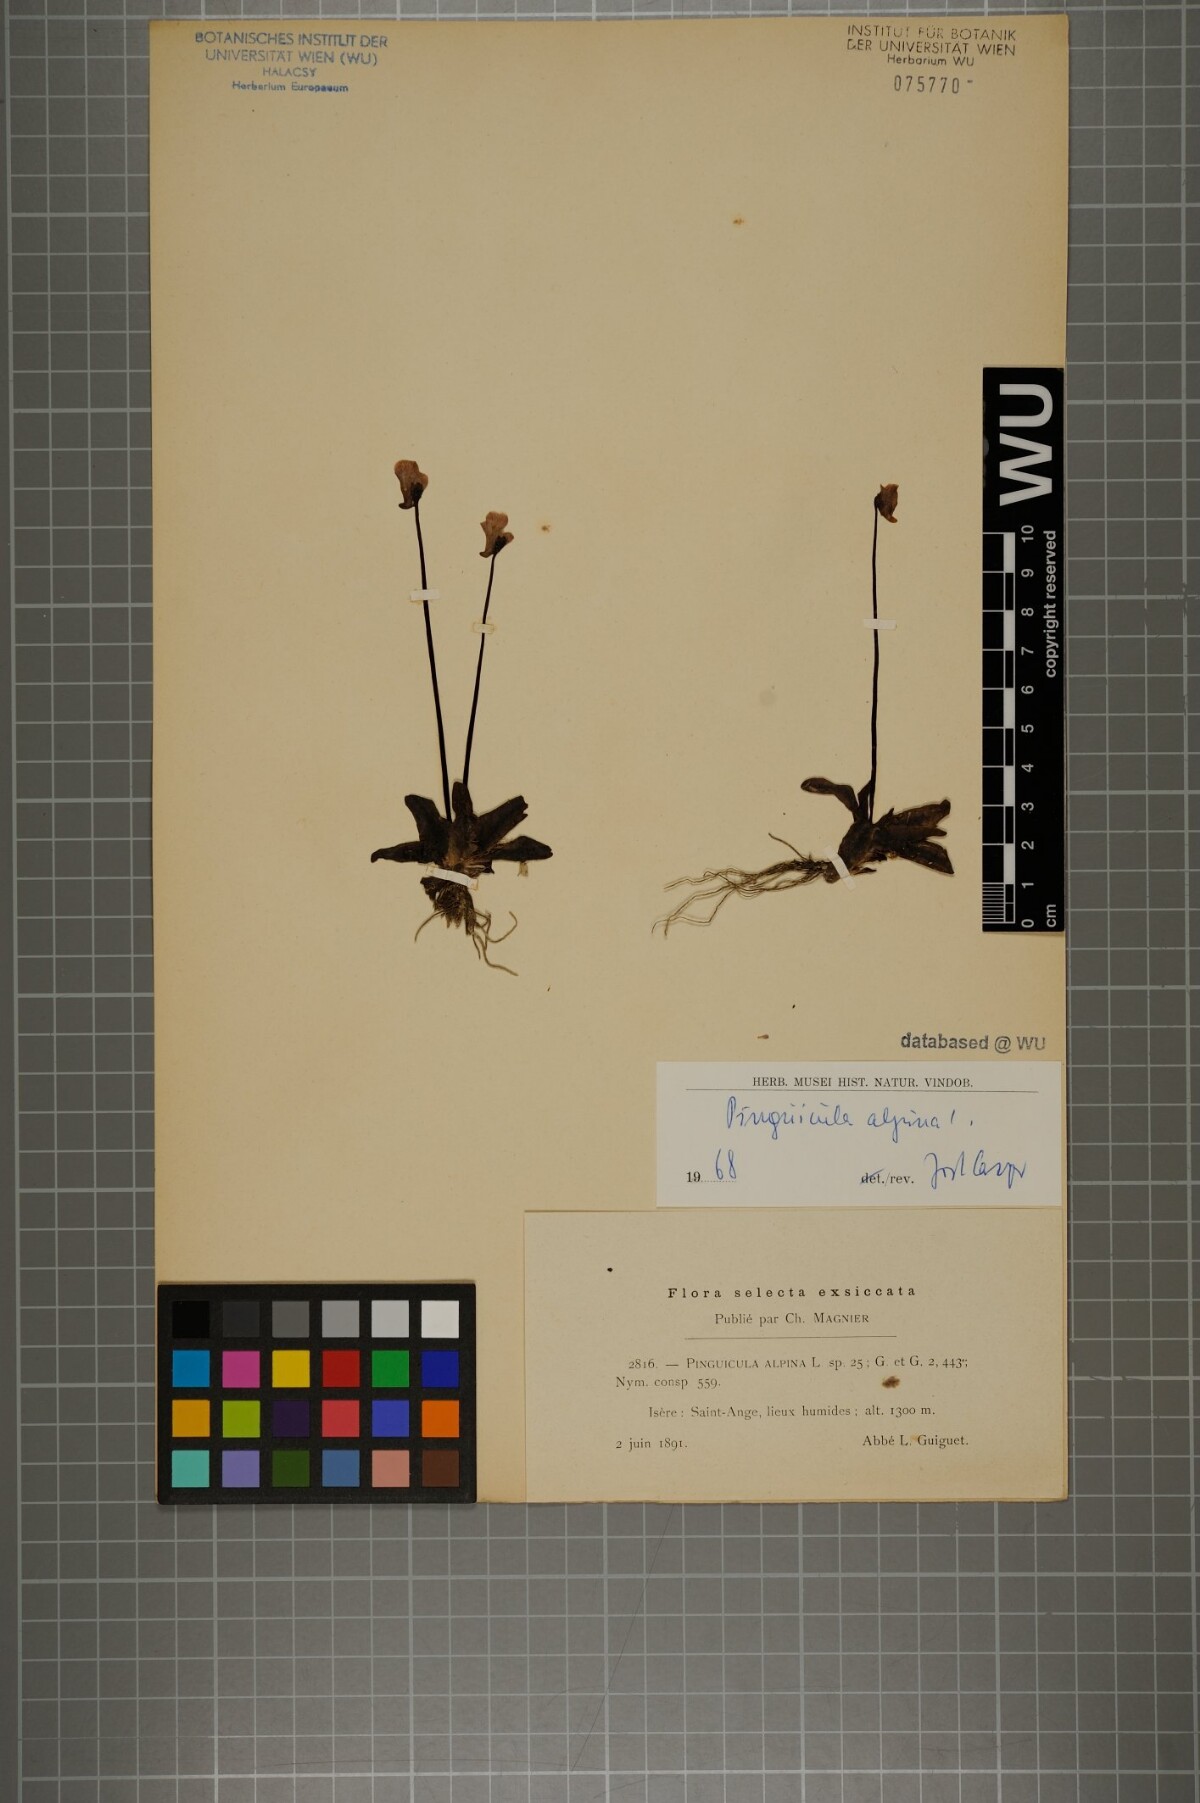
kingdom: Plantae
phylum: Tracheophyta
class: Magnoliopsida
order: Lamiales
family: Lentibulariaceae
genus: Pinguicula
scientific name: Pinguicula alpina
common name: Alpine butterwort
